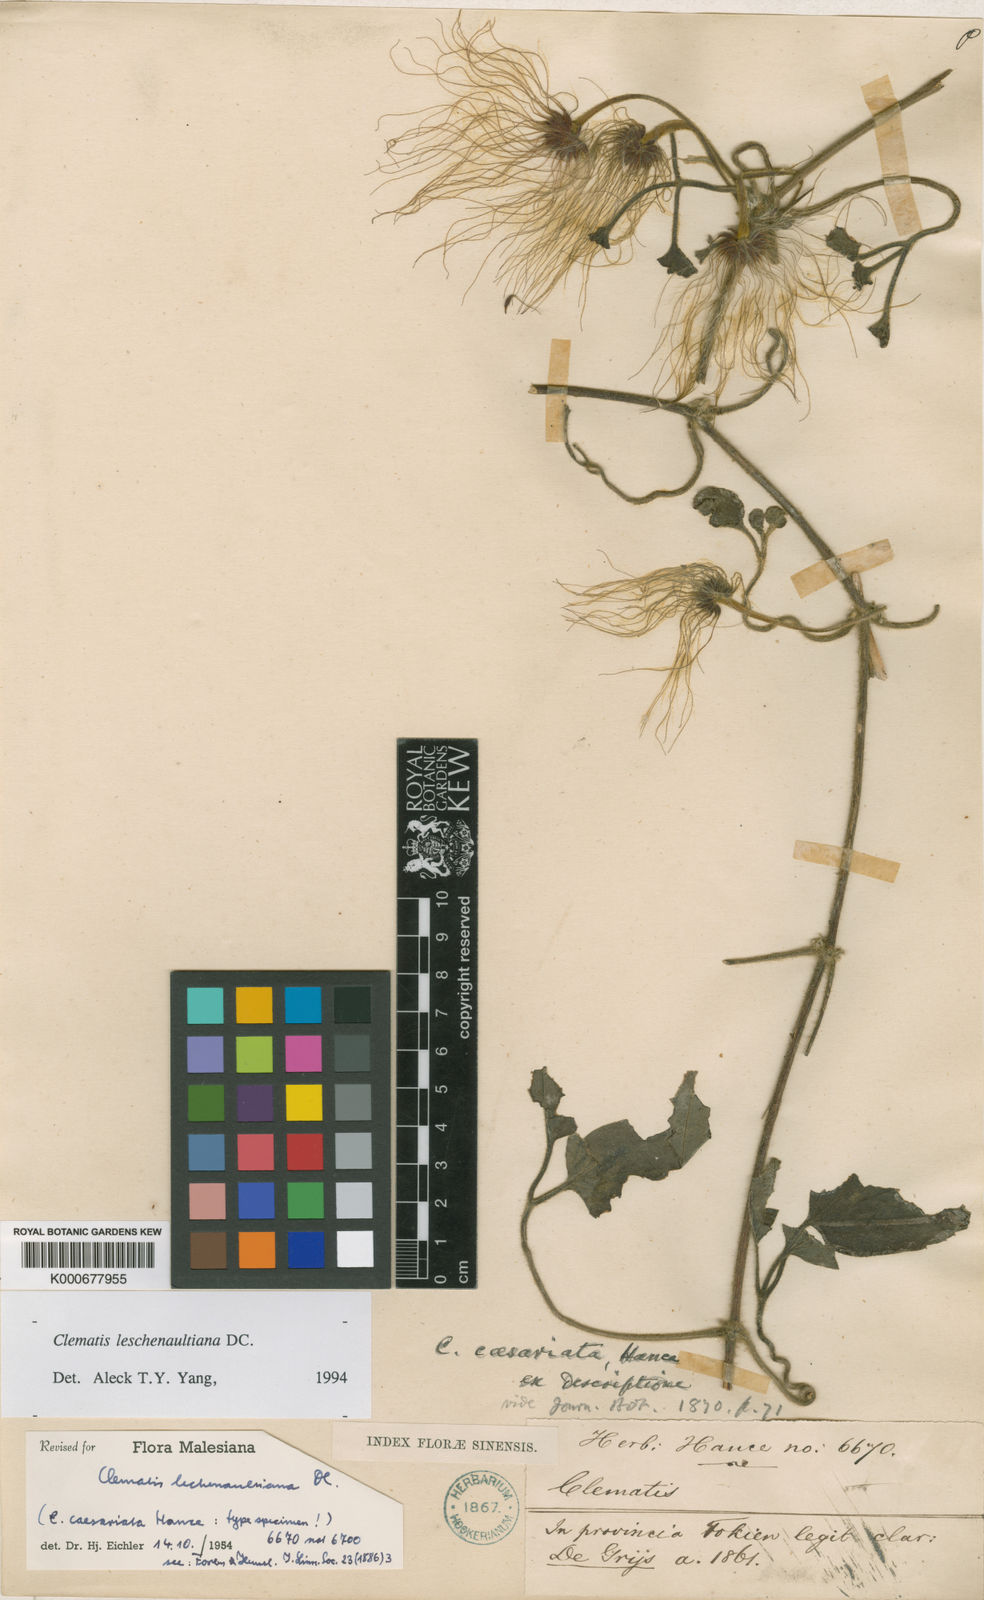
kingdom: Plantae
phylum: Tracheophyta
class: Magnoliopsida
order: Ranunculales
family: Ranunculaceae
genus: Clematis
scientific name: Clematis leschenaultiana
